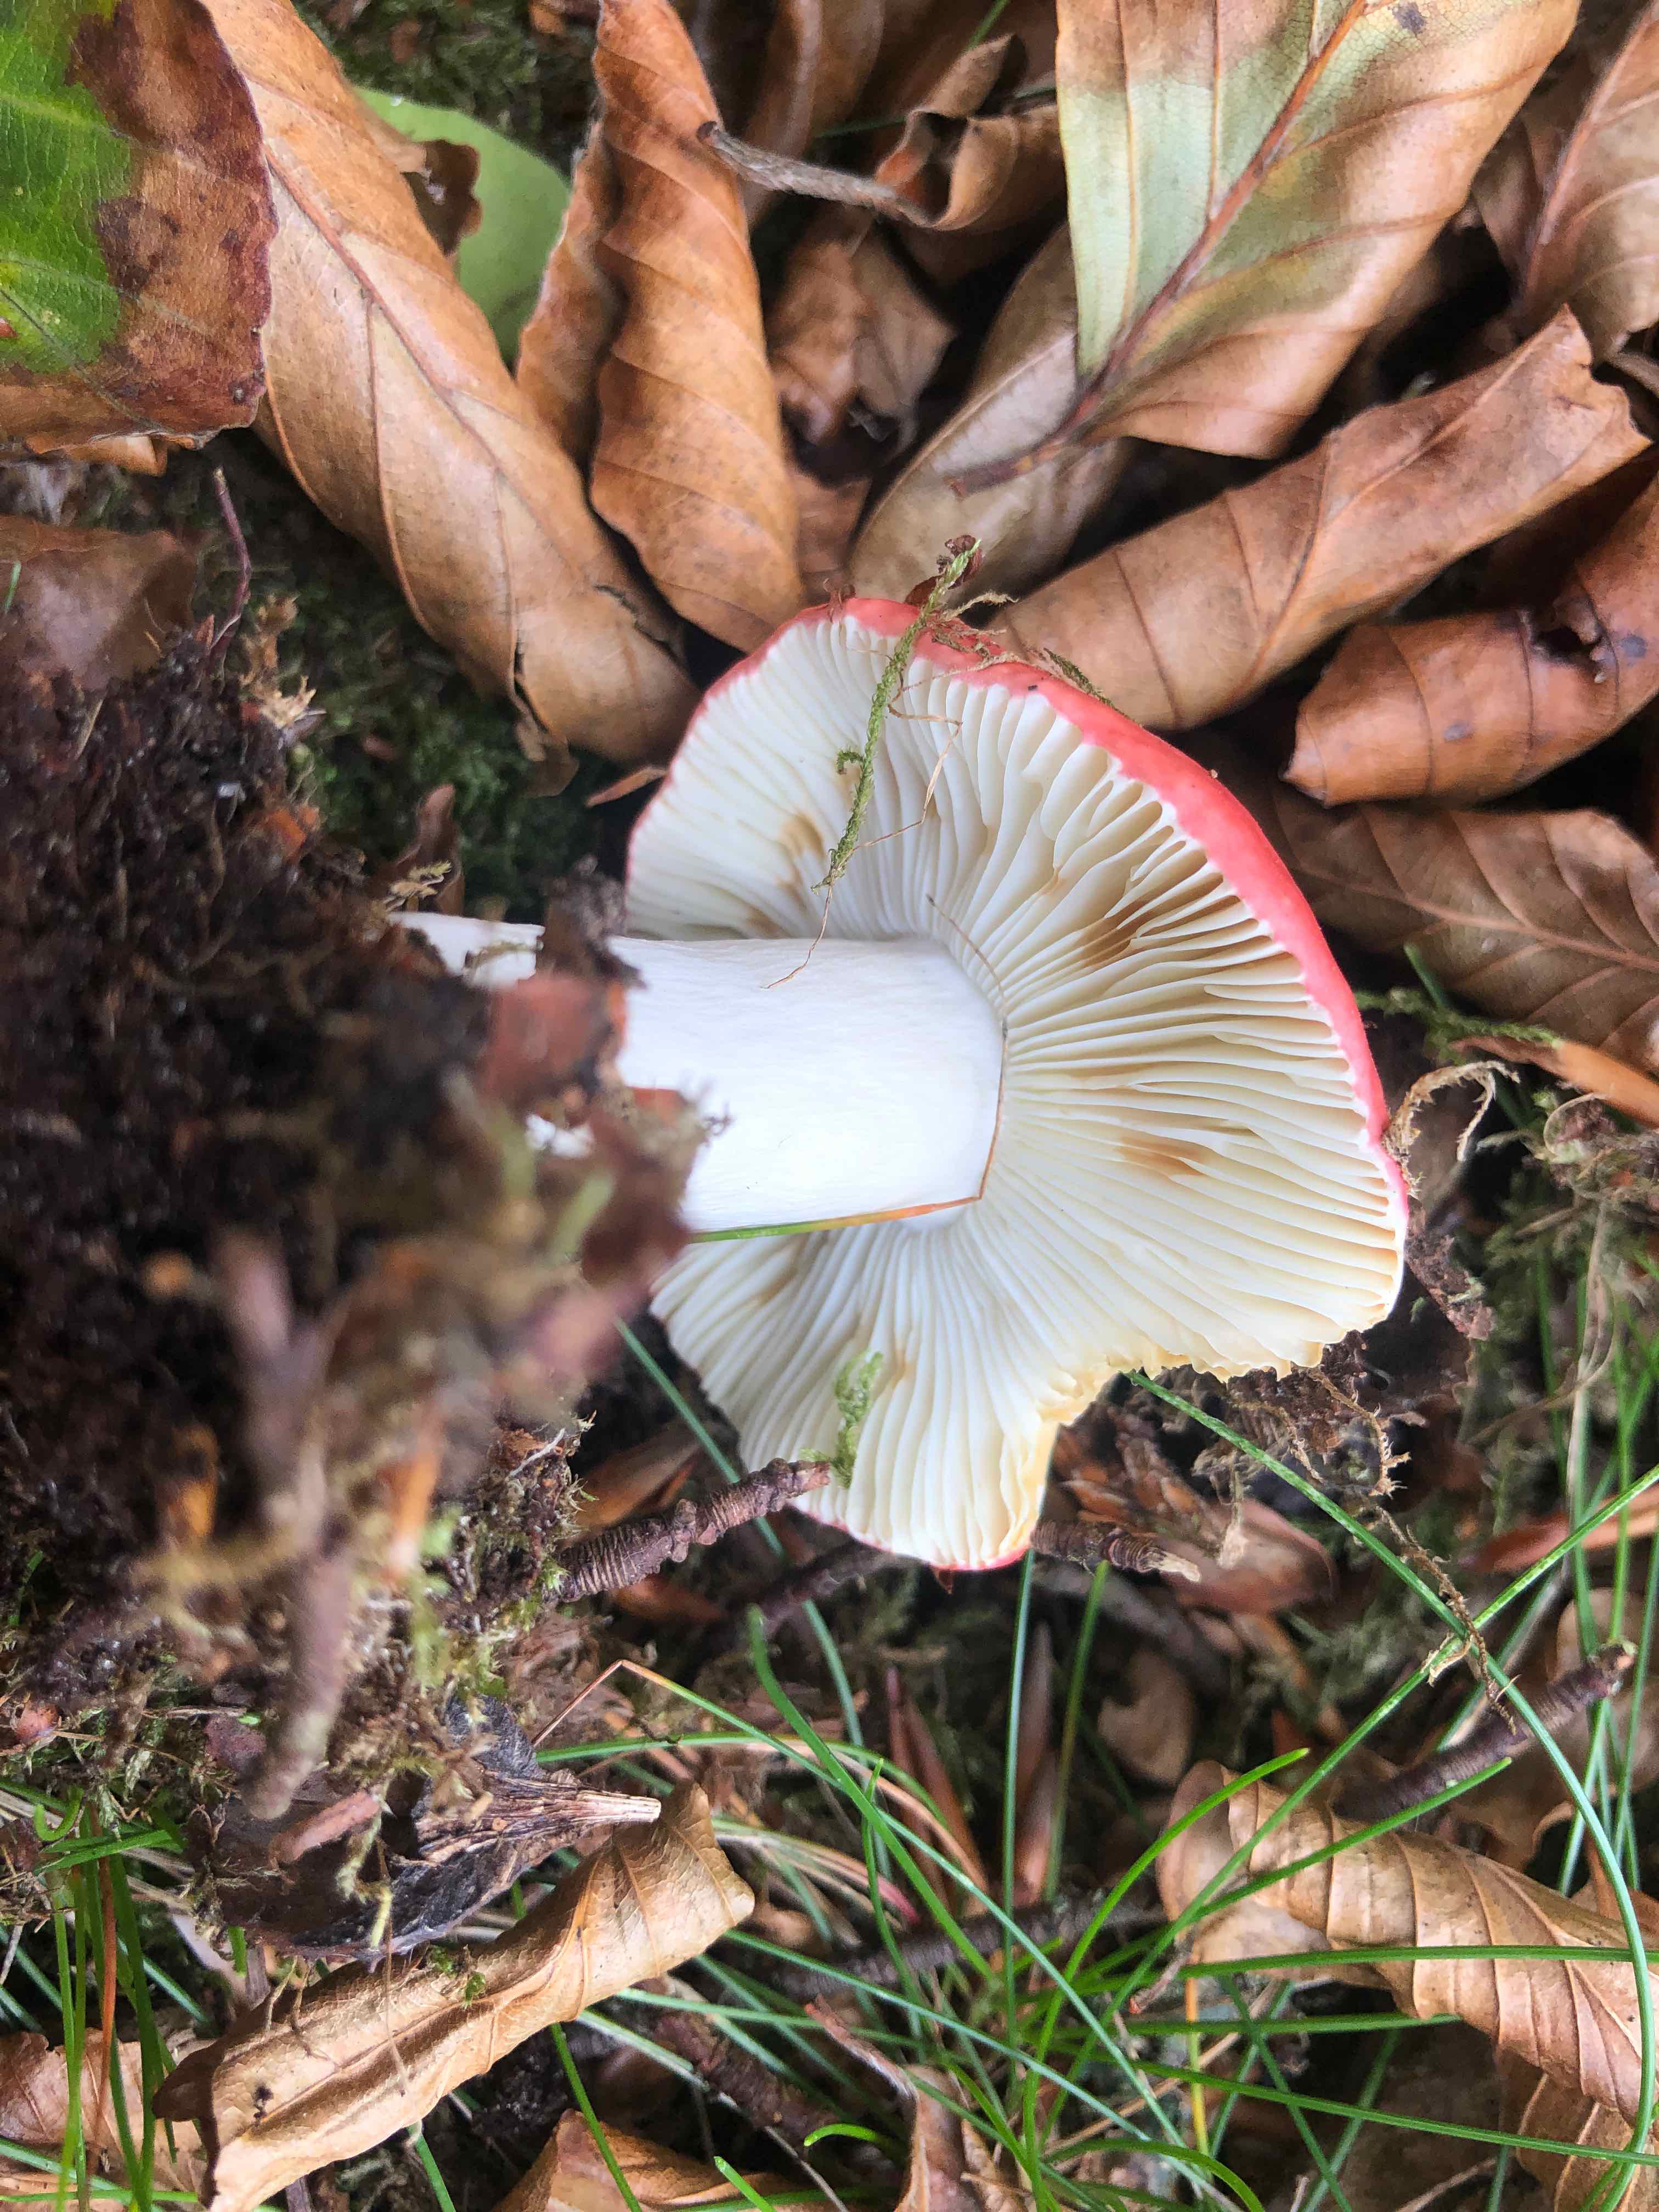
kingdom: Fungi
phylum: Basidiomycota
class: Agaricomycetes
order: Russulales
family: Russulaceae
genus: Russula
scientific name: Russula nobilis
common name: lille gift-skørhat
